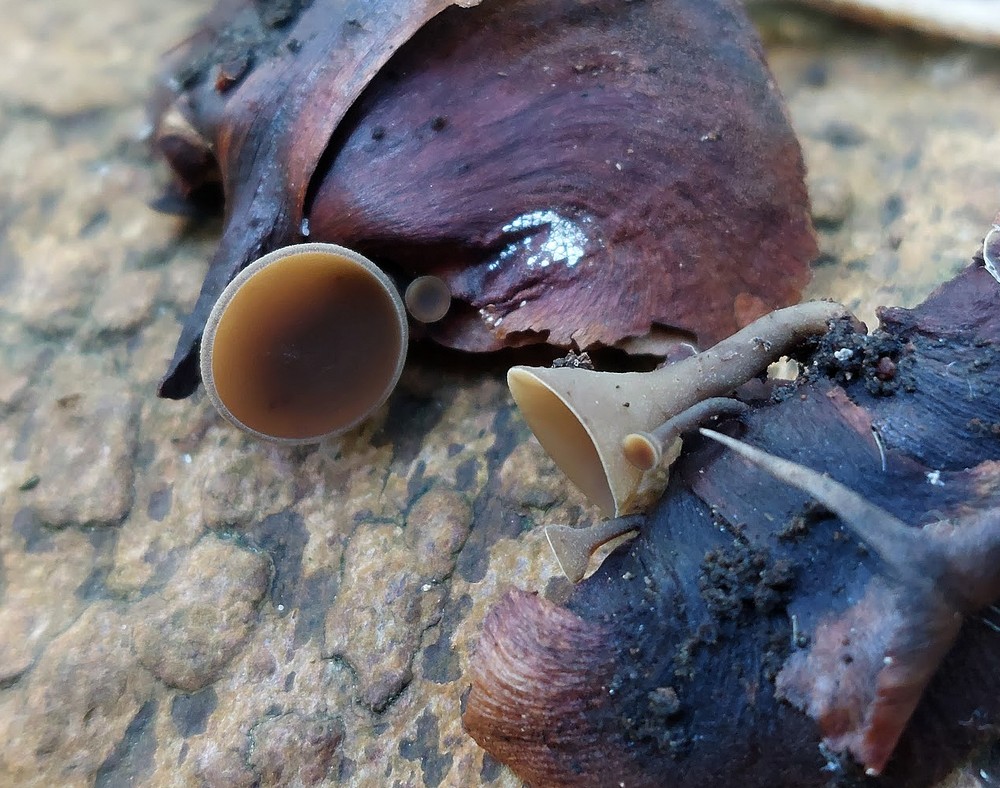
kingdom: Fungi
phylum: Ascomycota
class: Leotiomycetes
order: Helotiales
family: Sclerotiniaceae
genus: Ciboria
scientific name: Ciboria rufofusca
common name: kogleskæl-knoldskive
